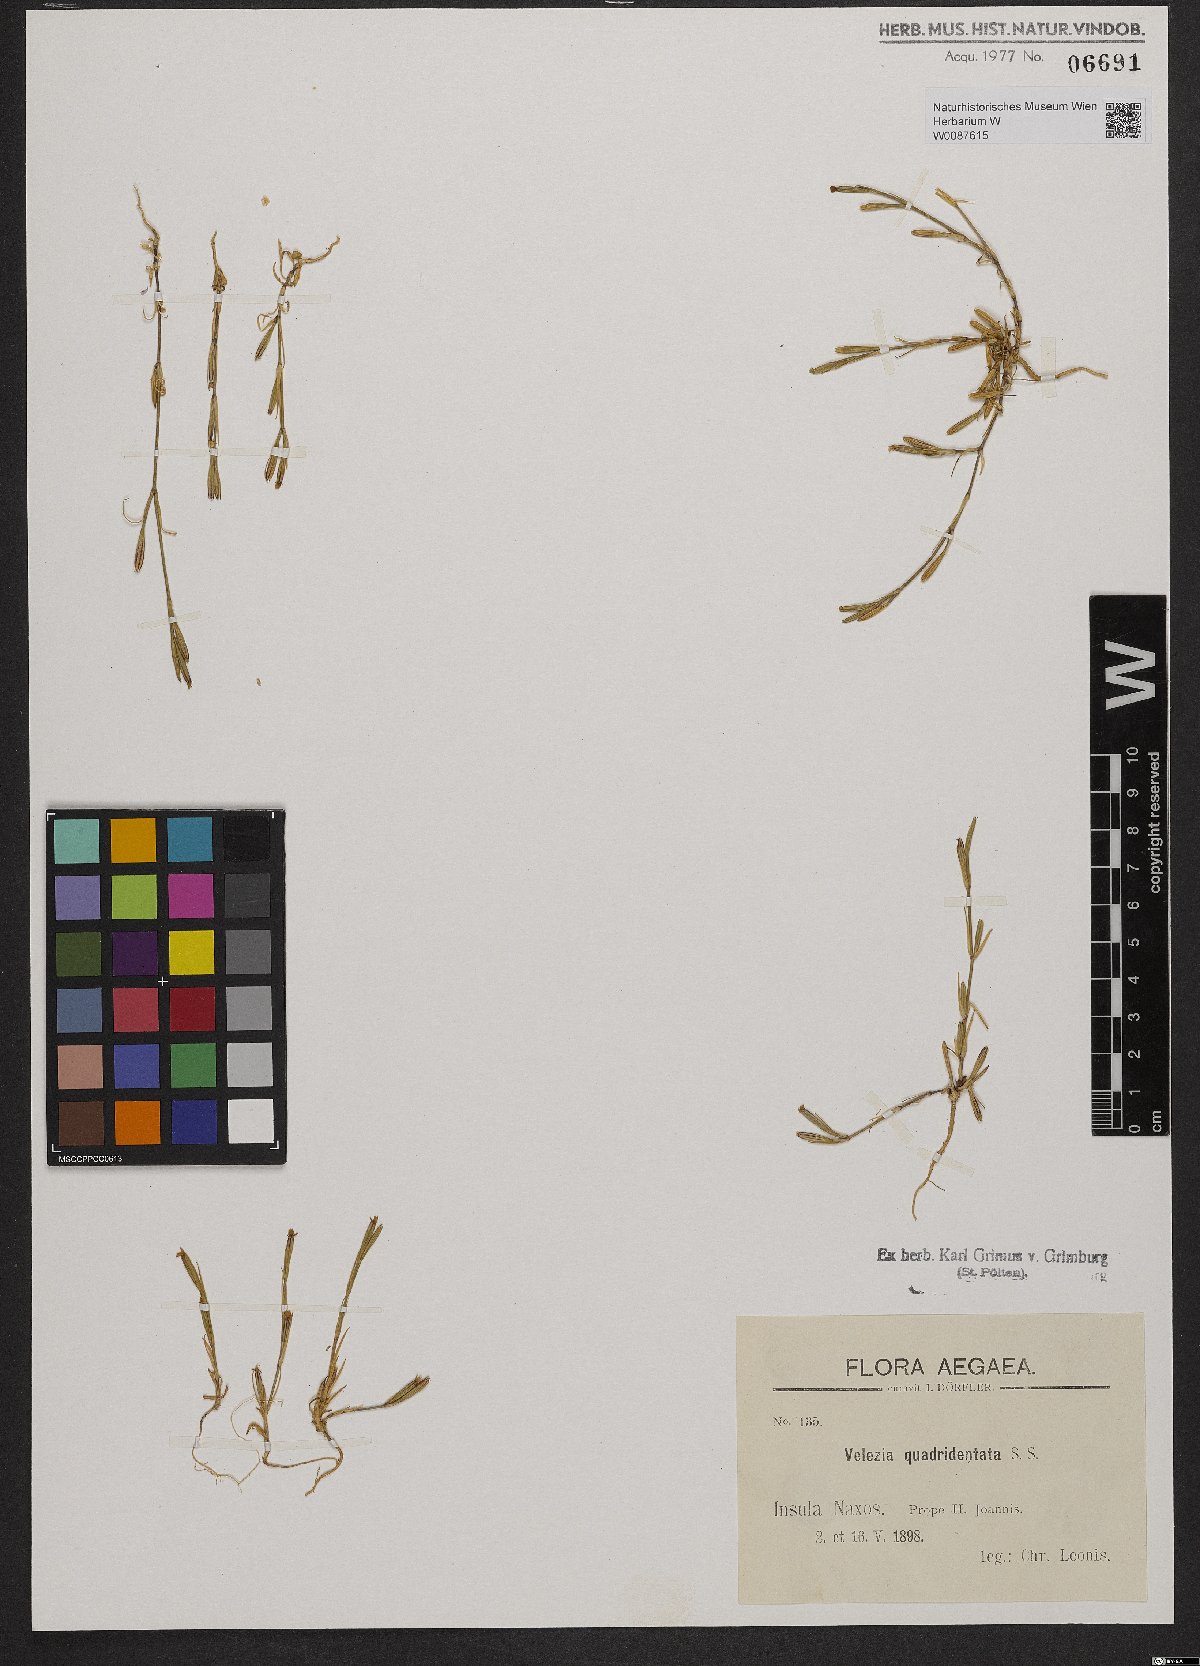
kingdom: Plantae
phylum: Tracheophyta
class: Magnoliopsida
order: Caryophyllales
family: Caryophyllaceae
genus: Dianthus
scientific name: Dianthus quadridentatus
